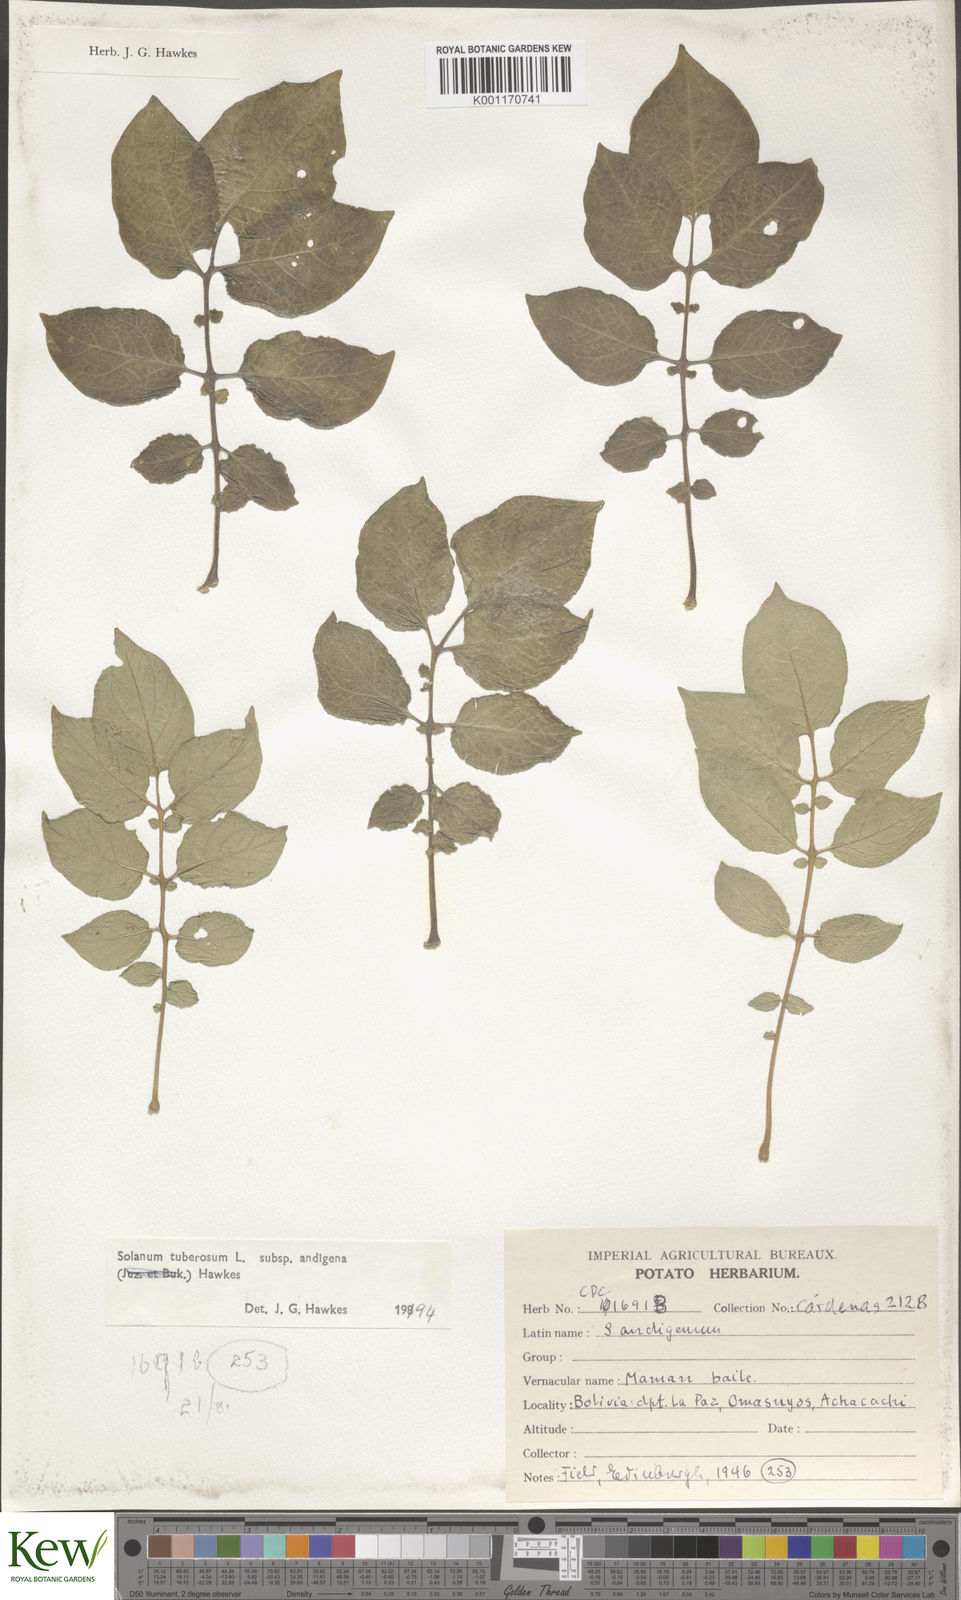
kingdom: Plantae
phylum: Tracheophyta
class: Magnoliopsida
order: Solanales
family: Solanaceae
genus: Solanum
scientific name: Solanum tuberosum
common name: Potato
